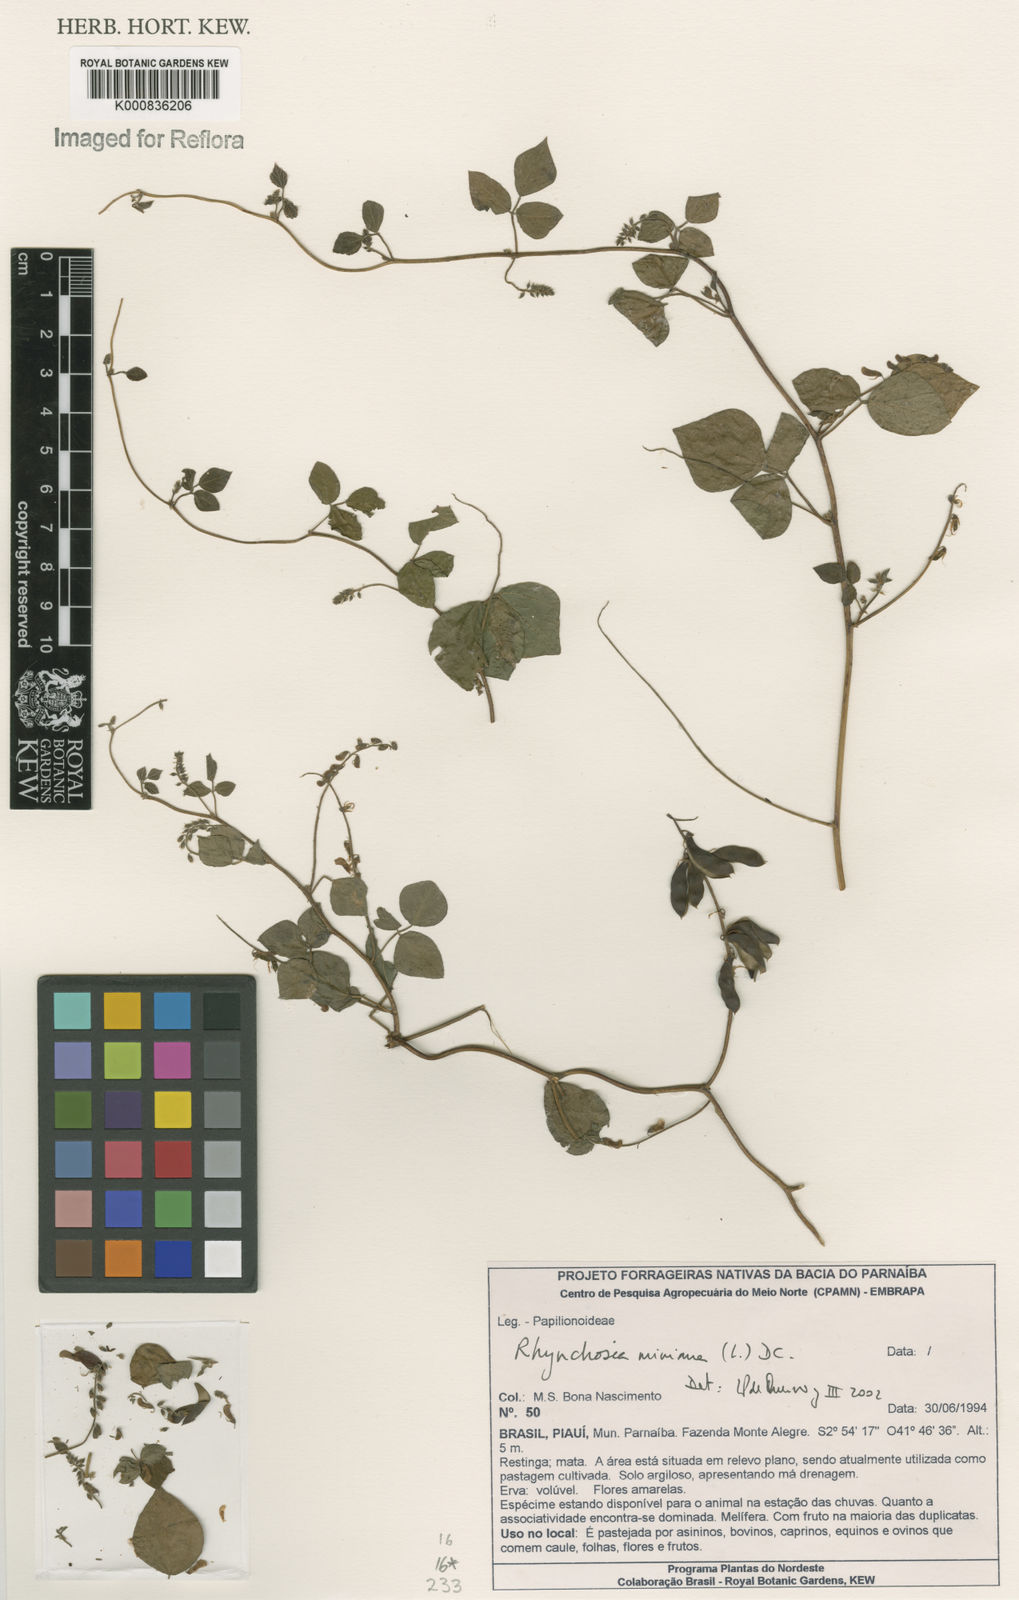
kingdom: Plantae
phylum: Tracheophyta
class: Magnoliopsida
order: Fabales
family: Fabaceae
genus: Rhynchosia
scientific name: Rhynchosia minima
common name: Least snoutbean
